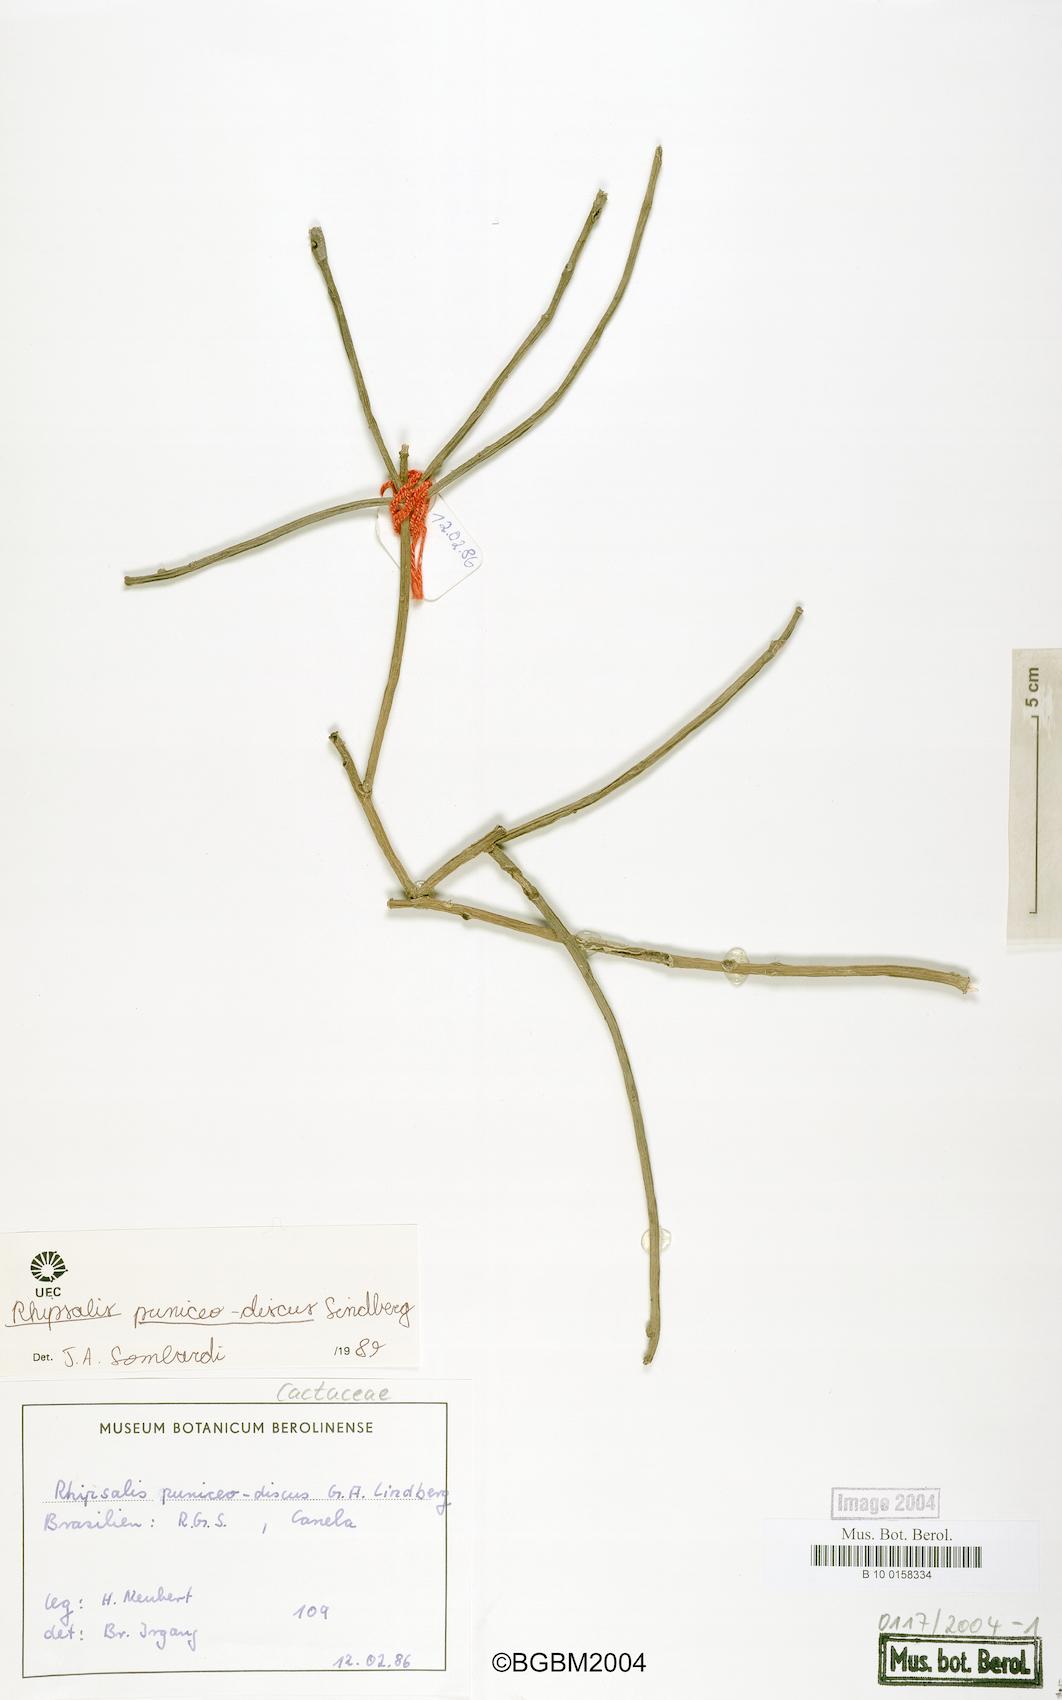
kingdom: Plantae
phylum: Tracheophyta
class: Magnoliopsida
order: Caryophyllales
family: Cactaceae
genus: Rhipsalis
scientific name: Rhipsalis puniceodiscus
